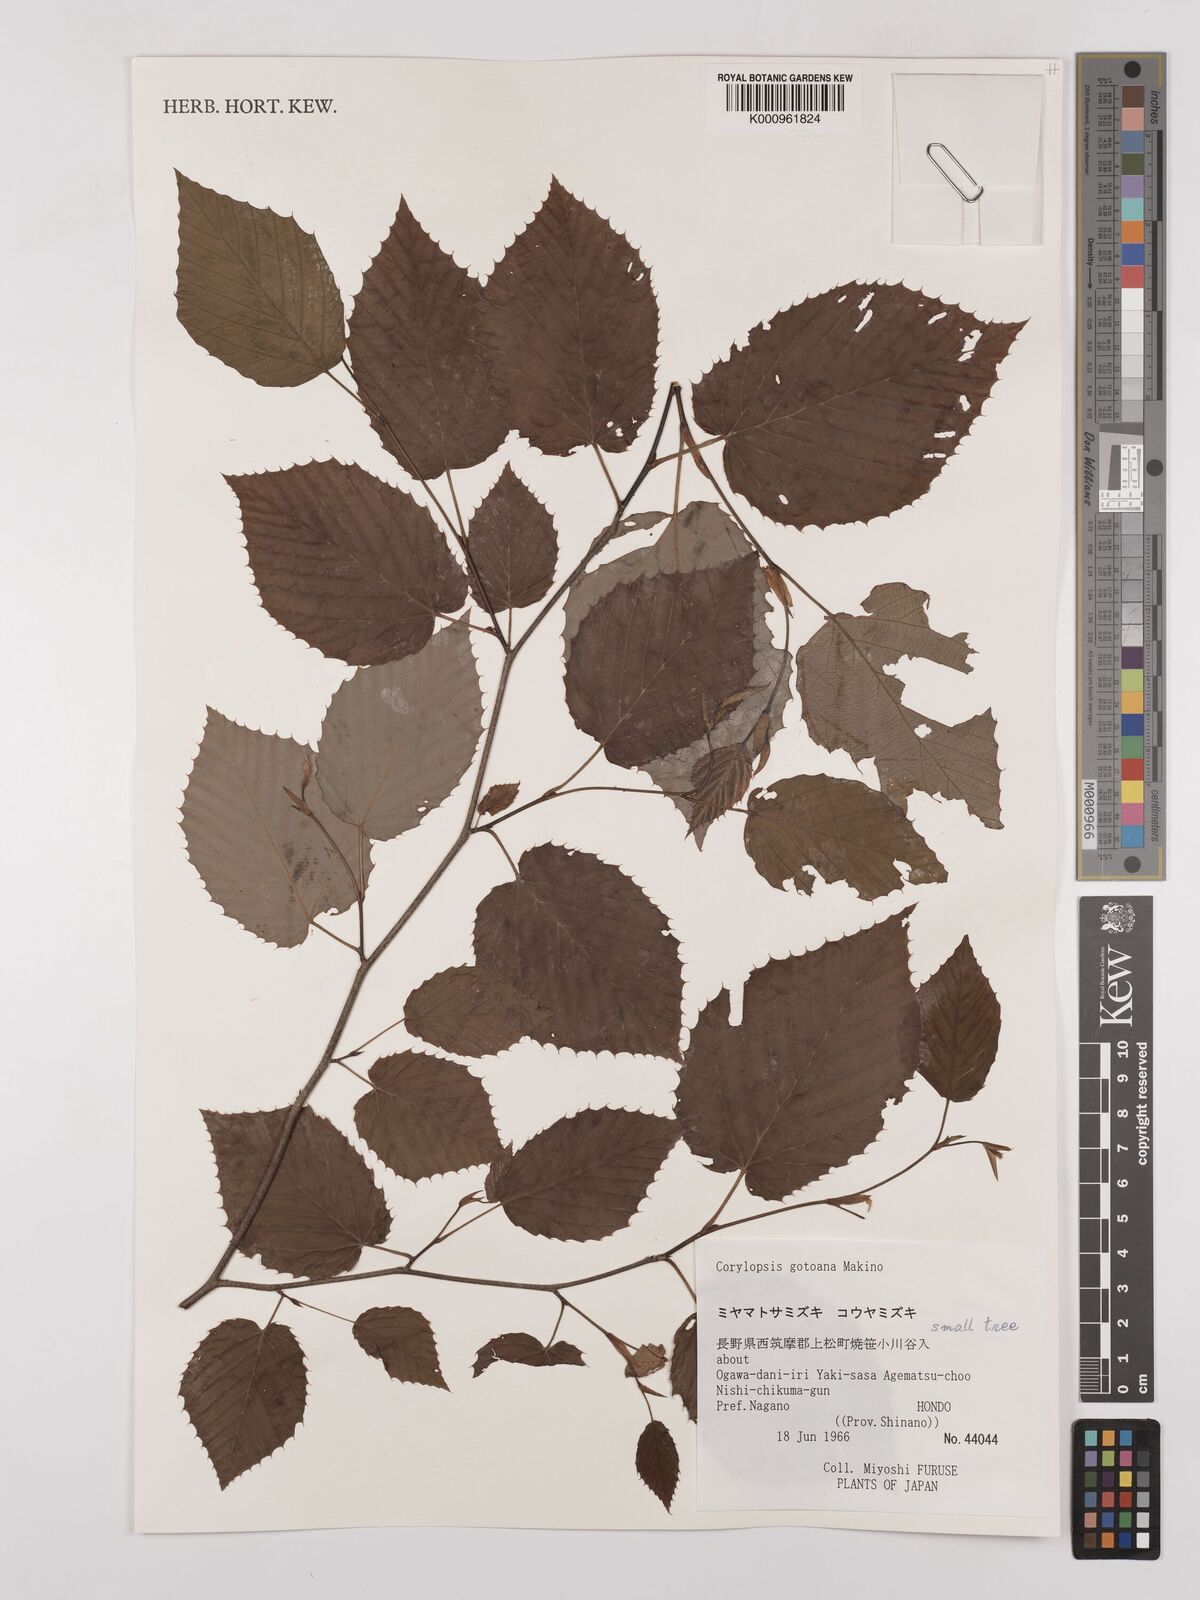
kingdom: Plantae
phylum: Tracheophyta
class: Magnoliopsida
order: Saxifragales
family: Hamamelidaceae
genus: Corylopsis
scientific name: Corylopsis glabrescens
